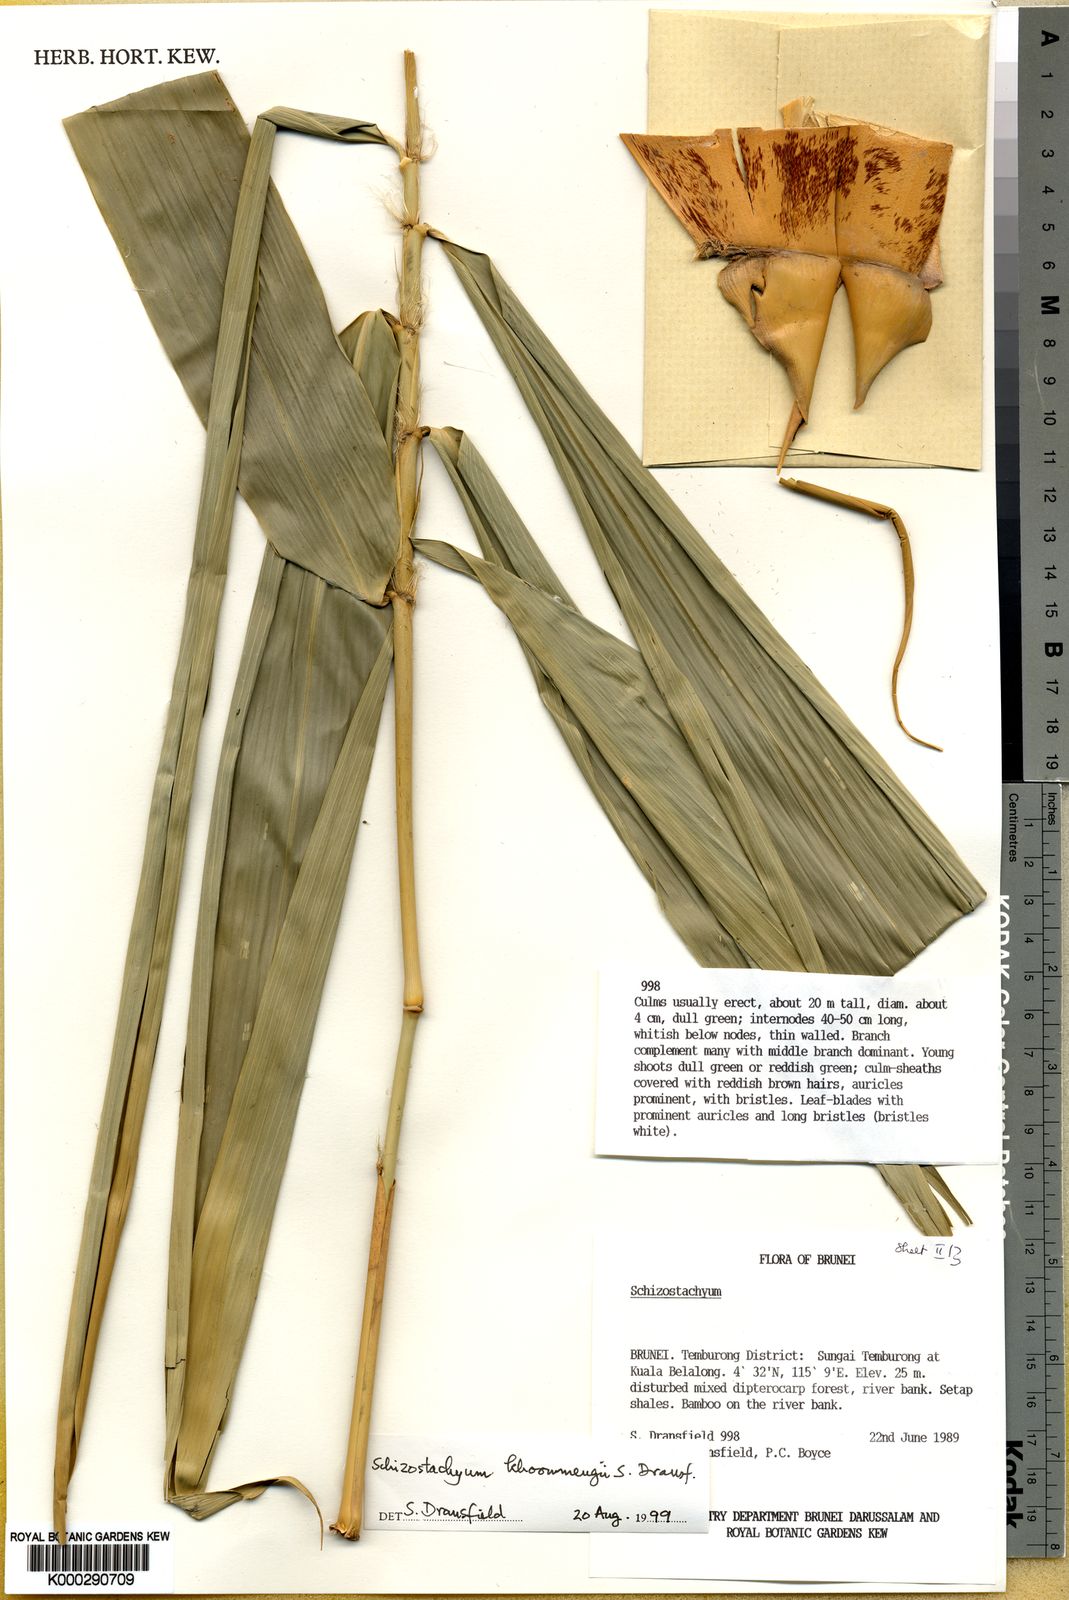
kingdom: Plantae
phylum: Tracheophyta
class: Liliopsida
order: Poales
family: Poaceae
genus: Schizostachyum
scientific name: Schizostachyum khoonmengii
